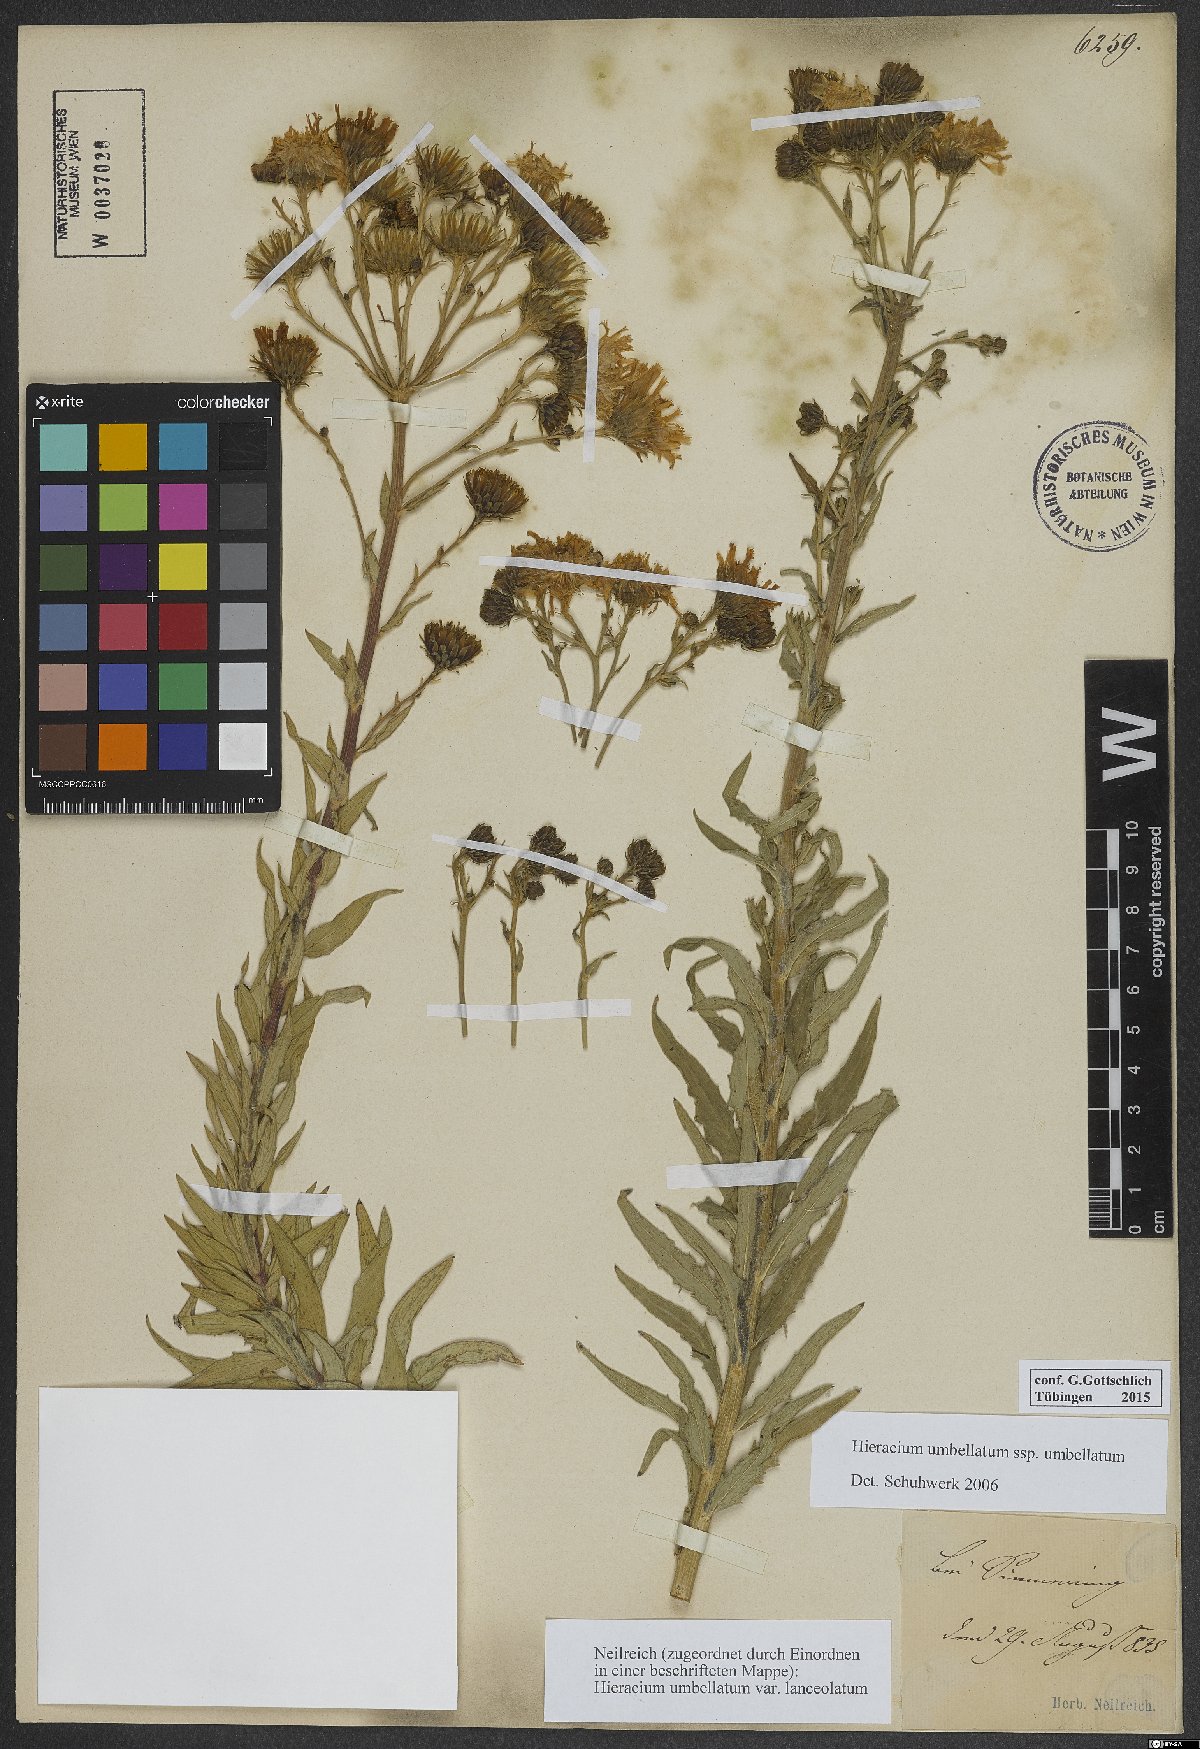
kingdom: Plantae
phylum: Tracheophyta
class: Magnoliopsida
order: Asterales
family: Asteraceae
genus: Hieracium
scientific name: Hieracium umbellatum
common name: Northern hawkweed
